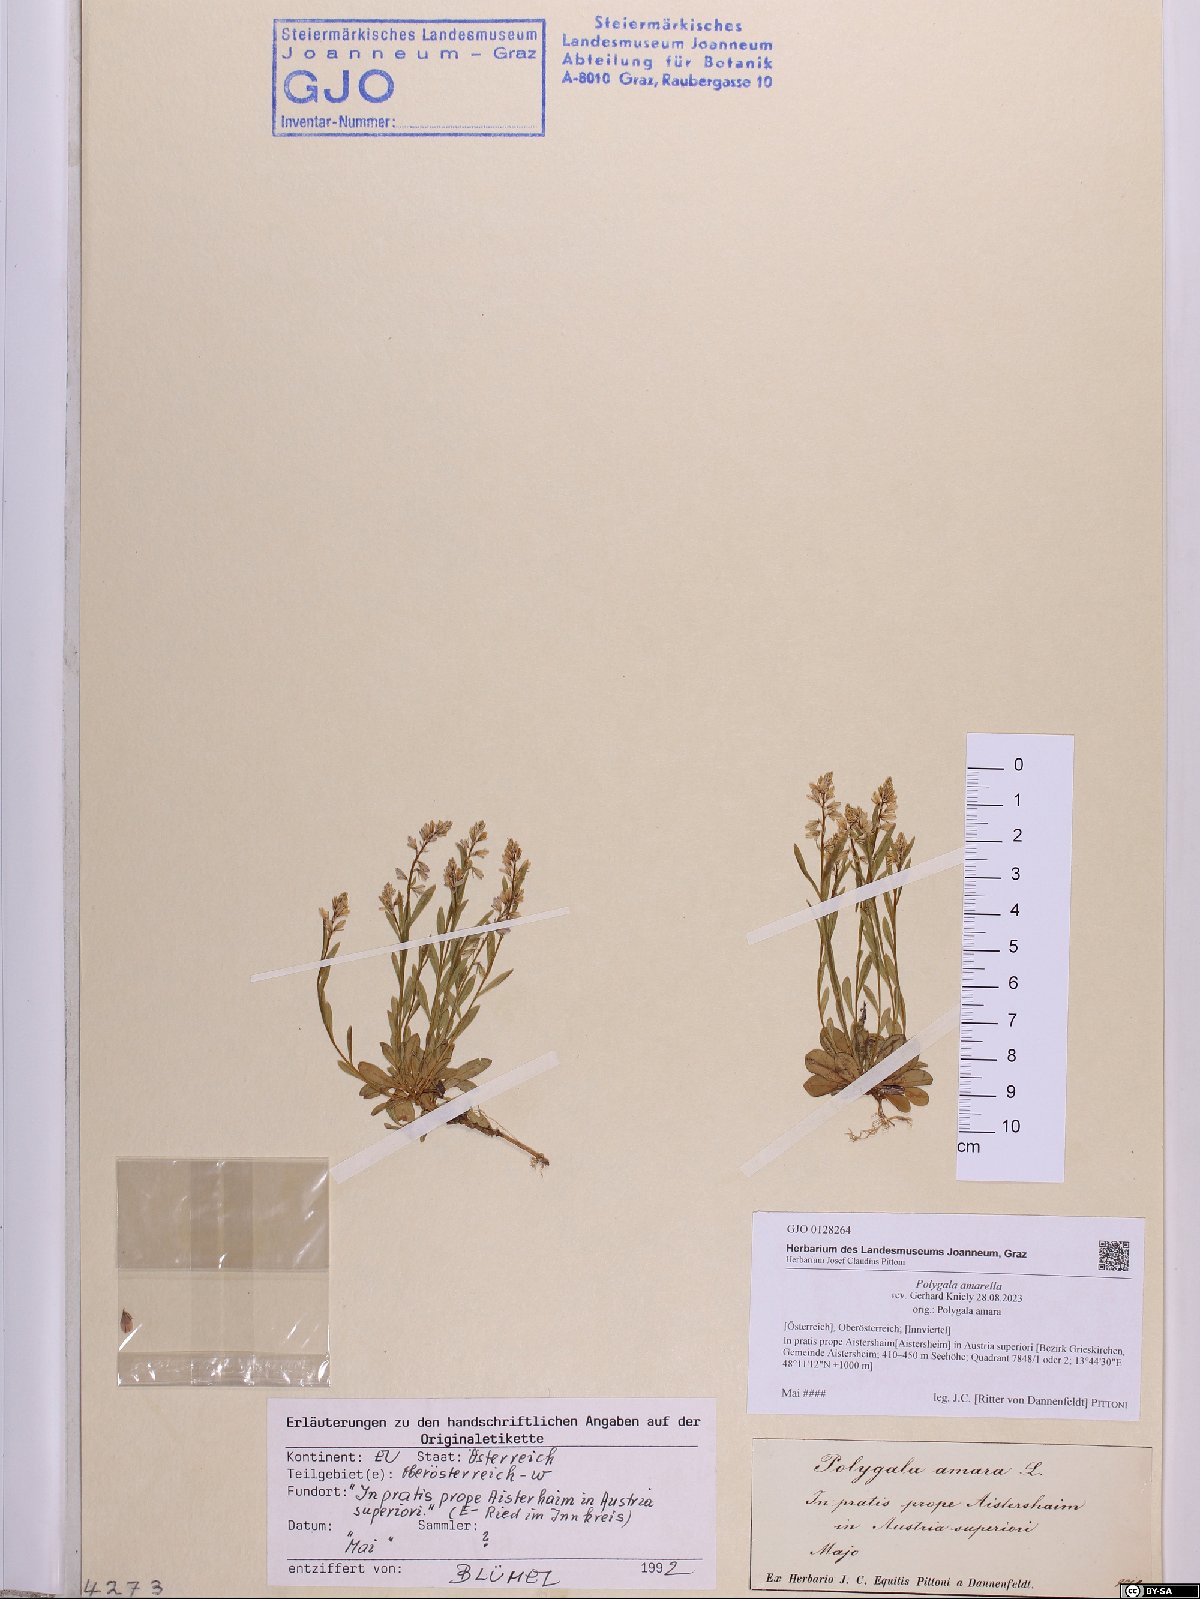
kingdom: Plantae
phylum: Tracheophyta
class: Magnoliopsida
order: Fabales
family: Polygalaceae
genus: Polygala
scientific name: Polygala amarella
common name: Dwarf milkwort
